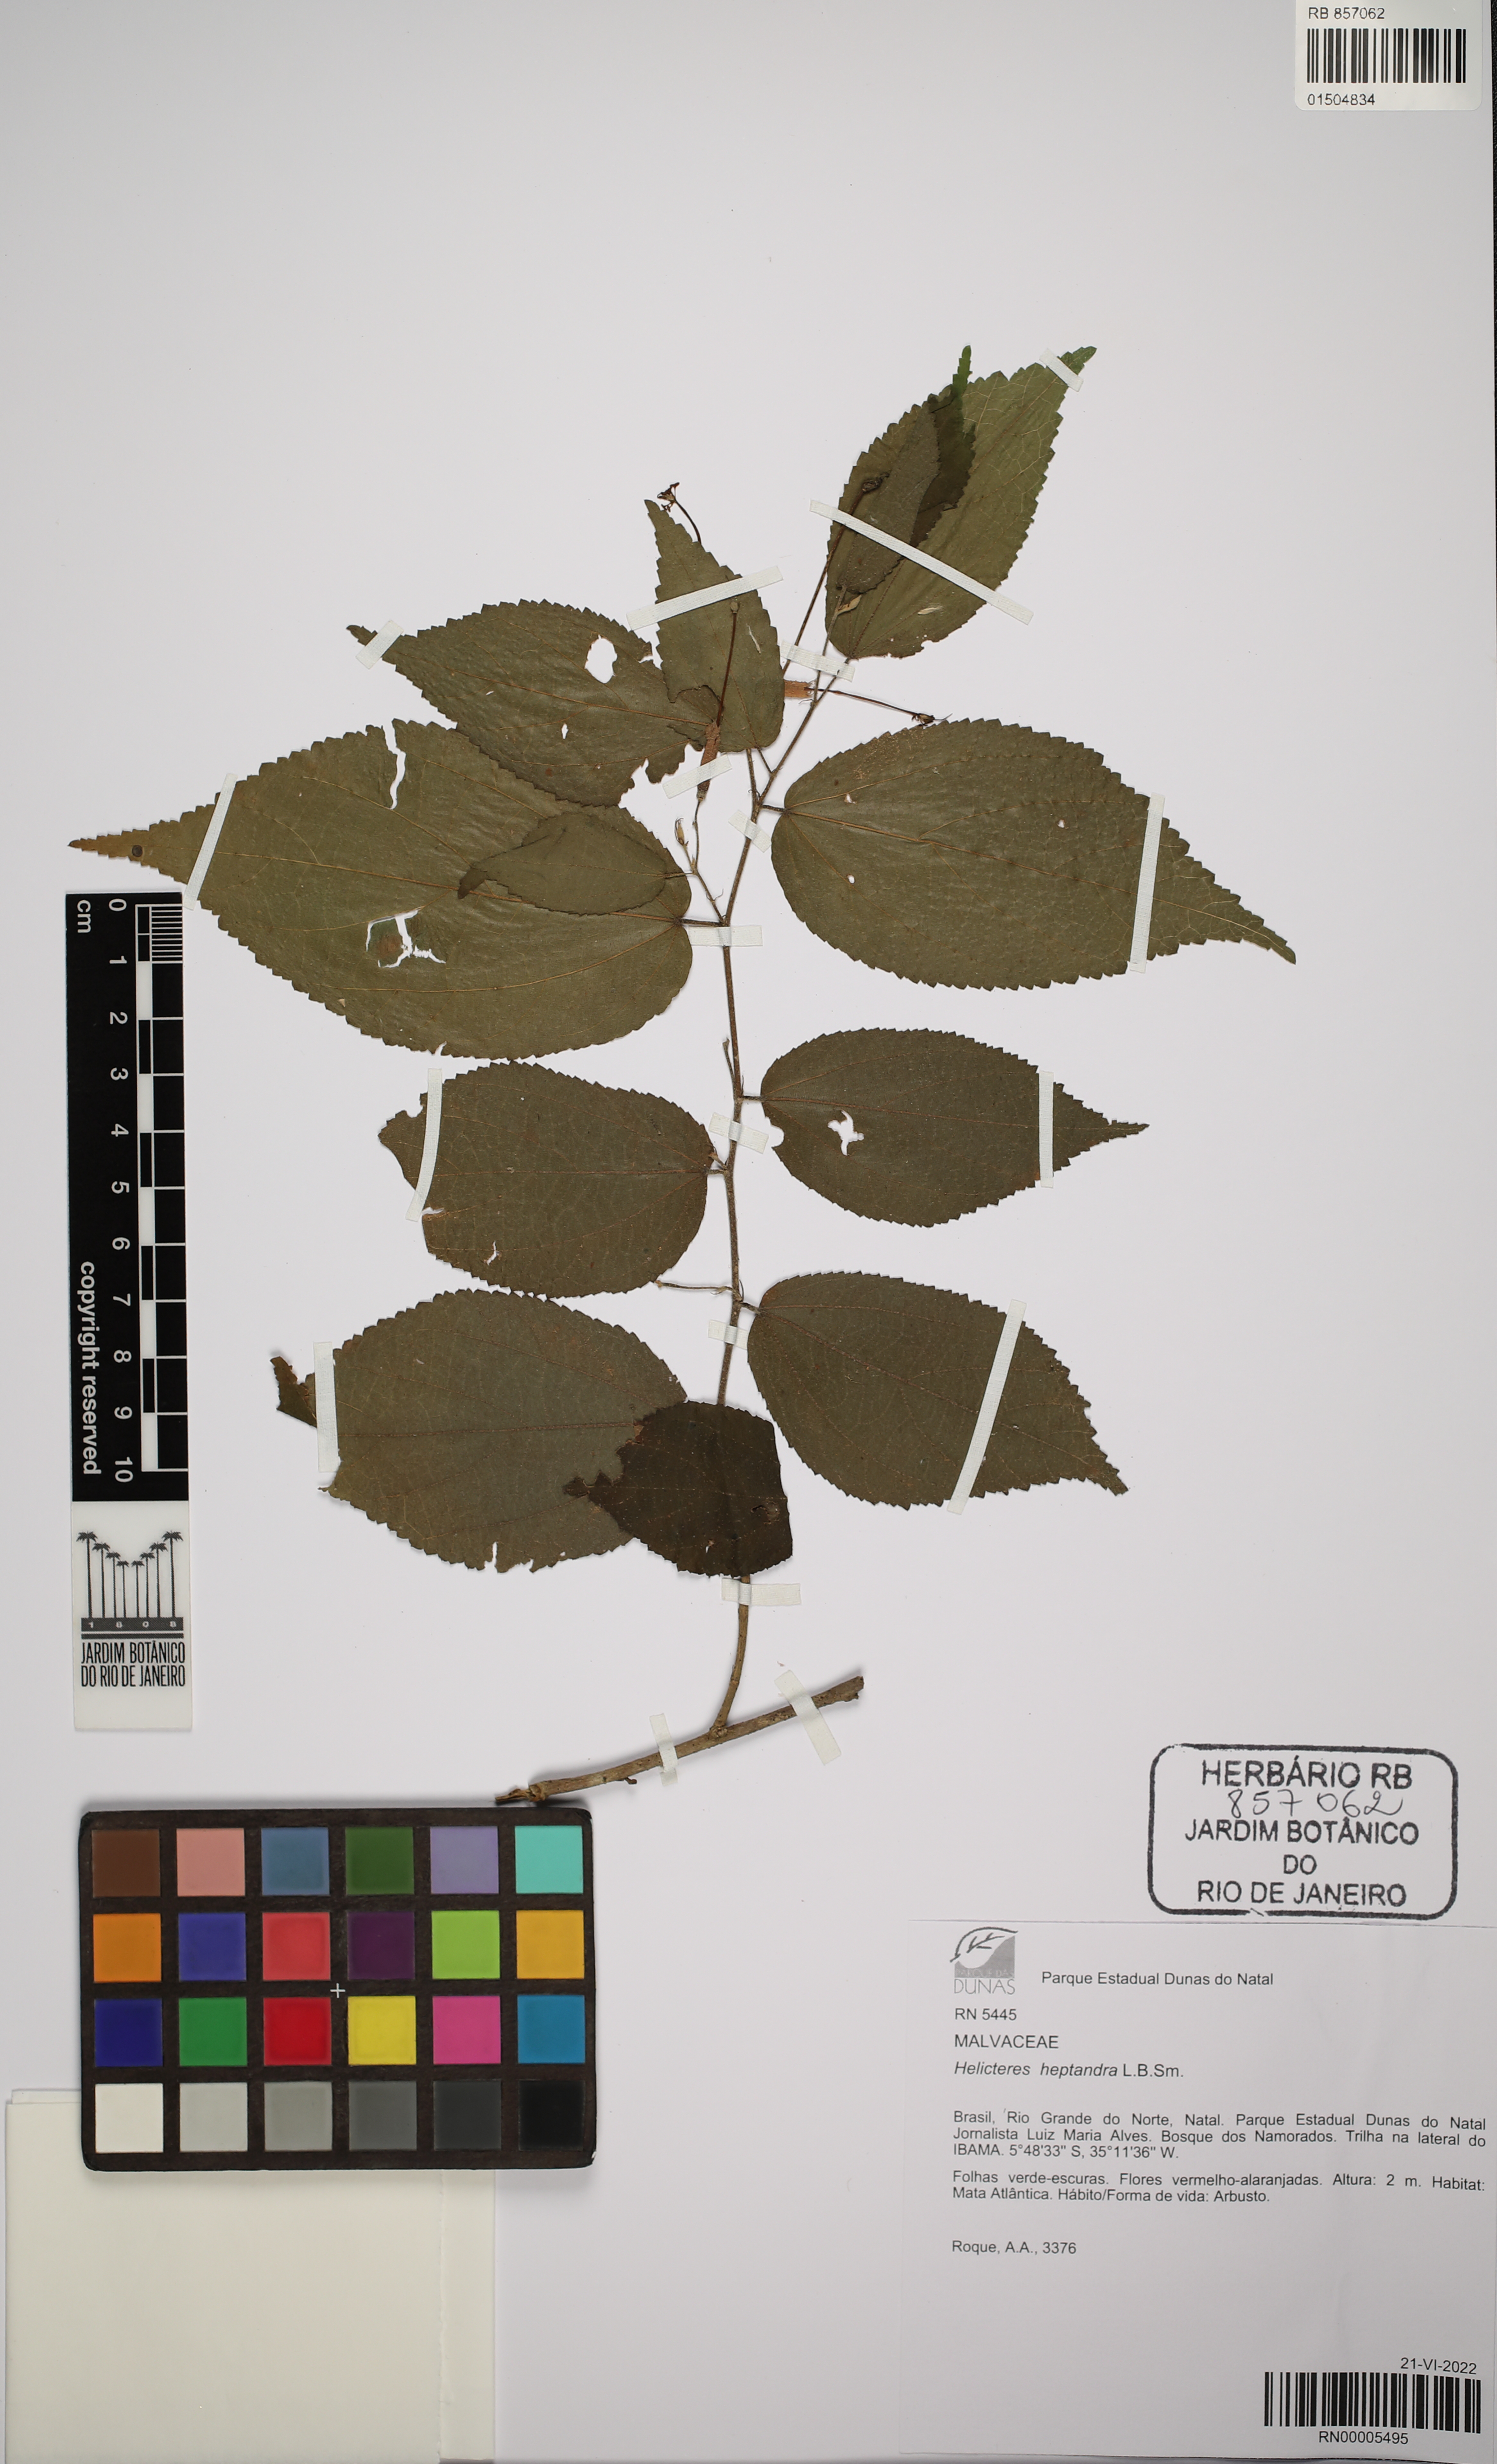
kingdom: Plantae
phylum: Tracheophyta
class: Magnoliopsida
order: Malvales
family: Malvaceae
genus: Helicteres
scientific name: Helicteres heptandra
